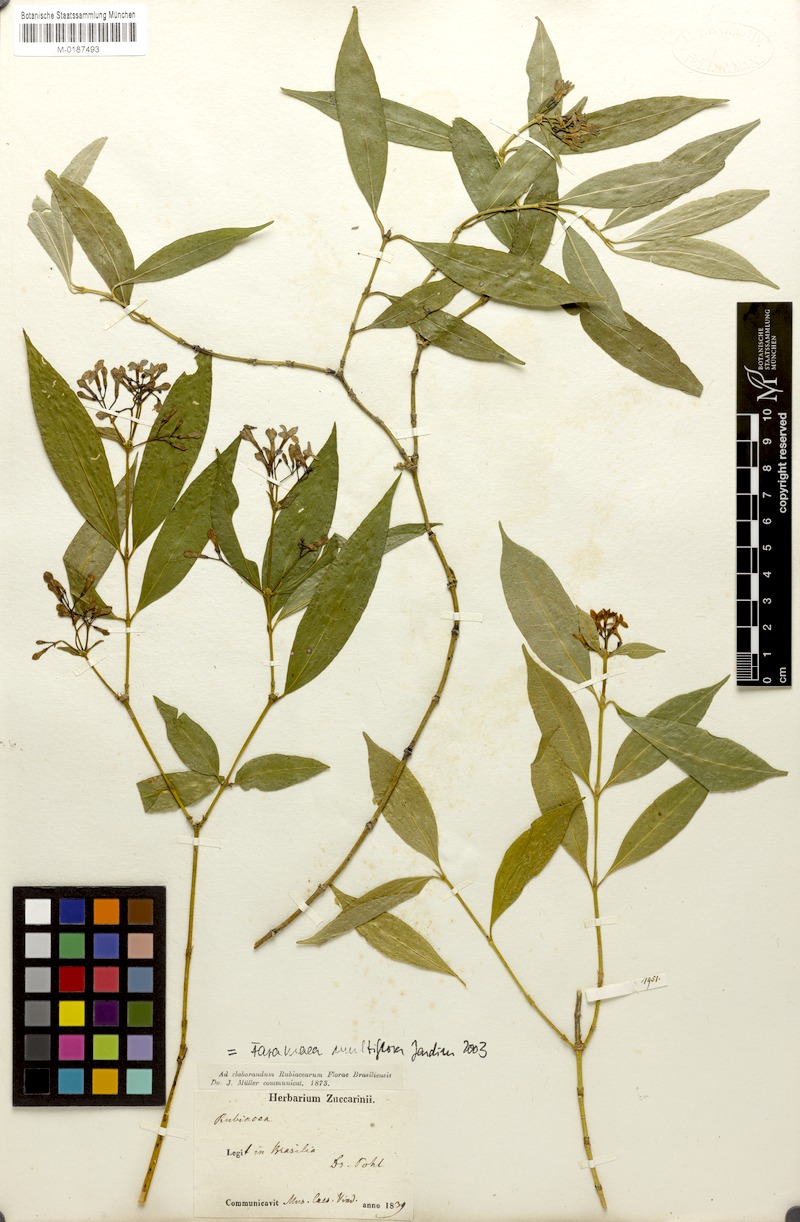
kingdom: Plantae
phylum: Tracheophyta
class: Magnoliopsida
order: Gentianales
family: Rubiaceae
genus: Faramea
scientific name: Faramea multiflora
